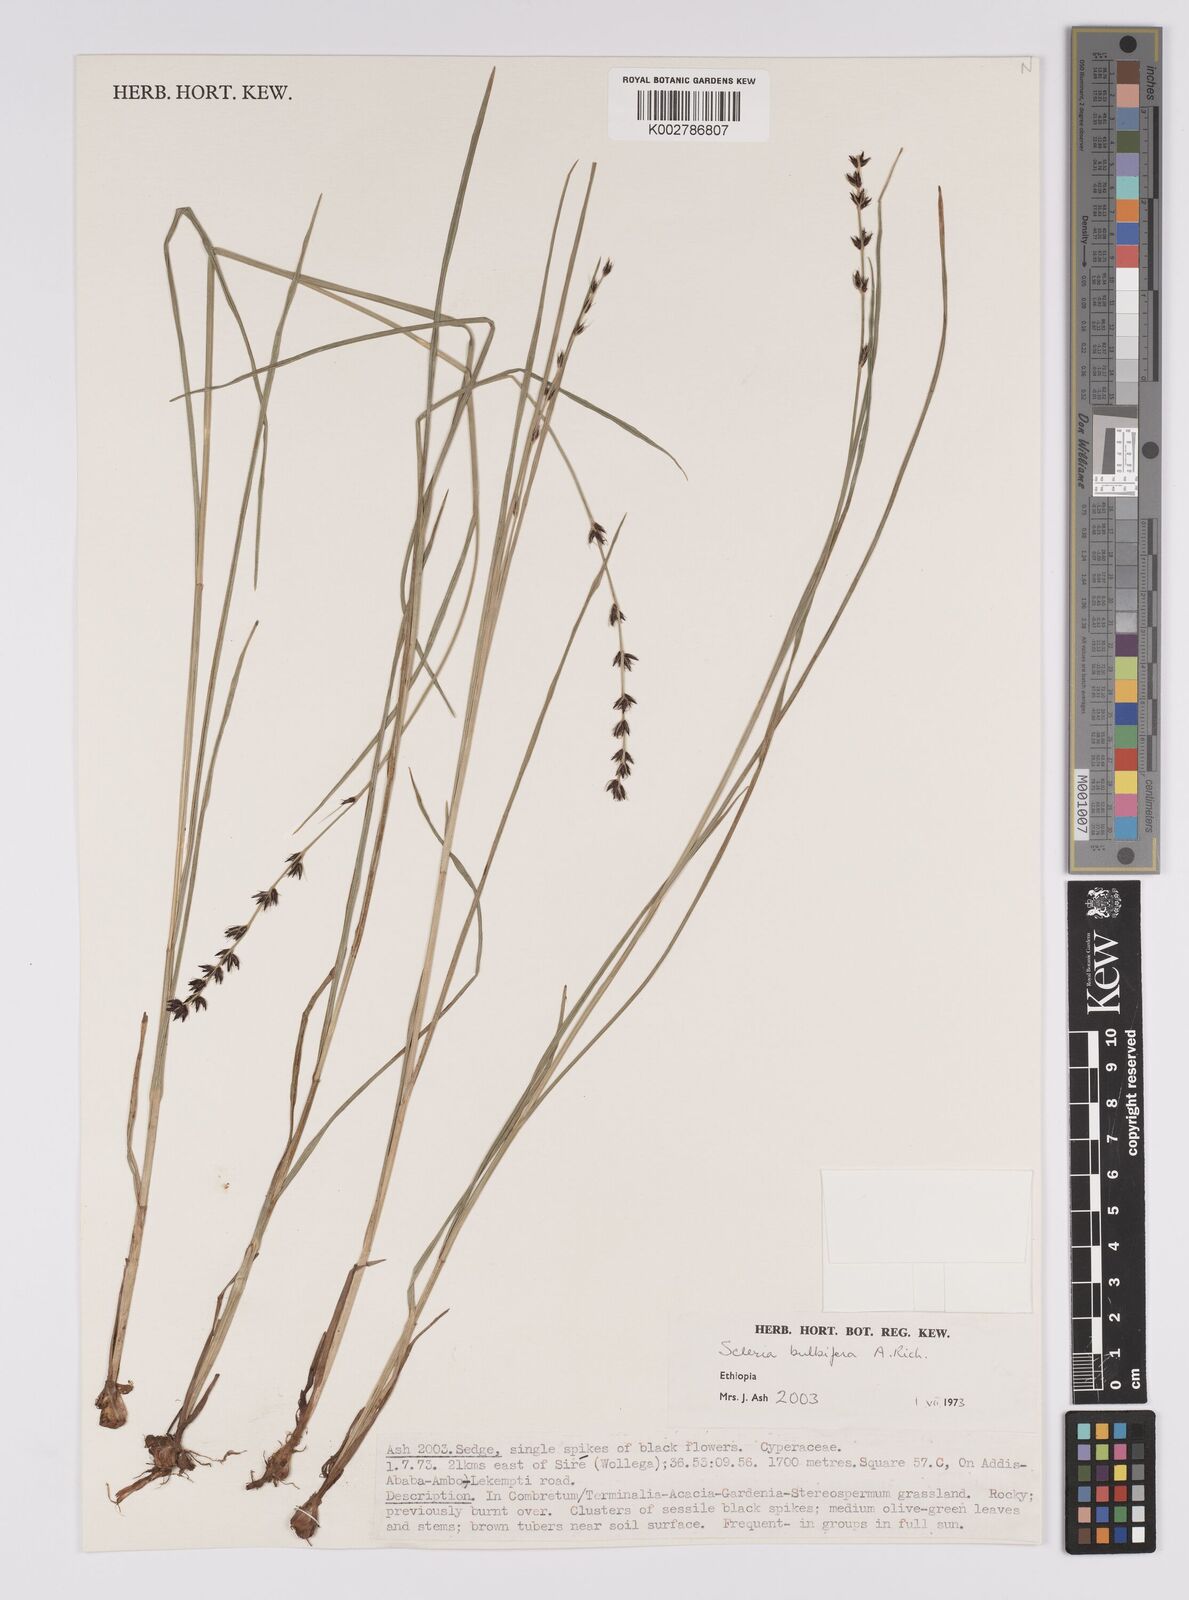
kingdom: Plantae
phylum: Tracheophyta
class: Liliopsida
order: Poales
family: Cyperaceae
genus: Scleria
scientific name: Scleria bulbifera
